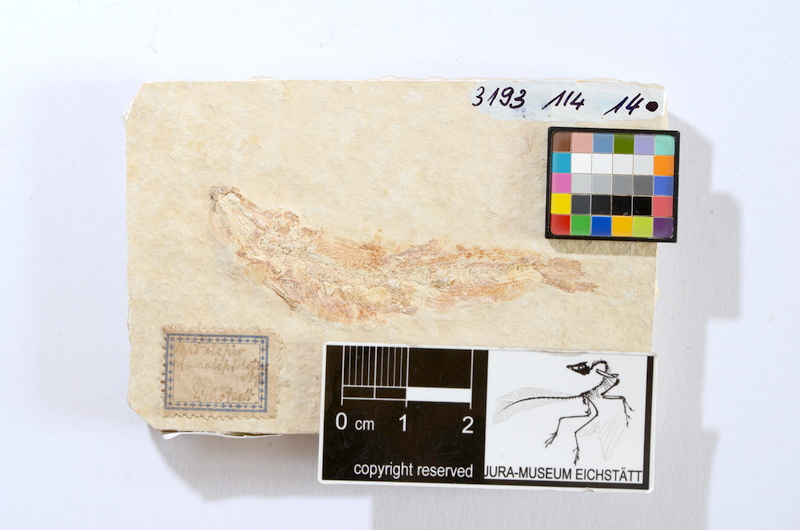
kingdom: Animalia
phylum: Chordata
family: Ascalaboidae
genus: Tharsis
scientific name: Tharsis dubius
